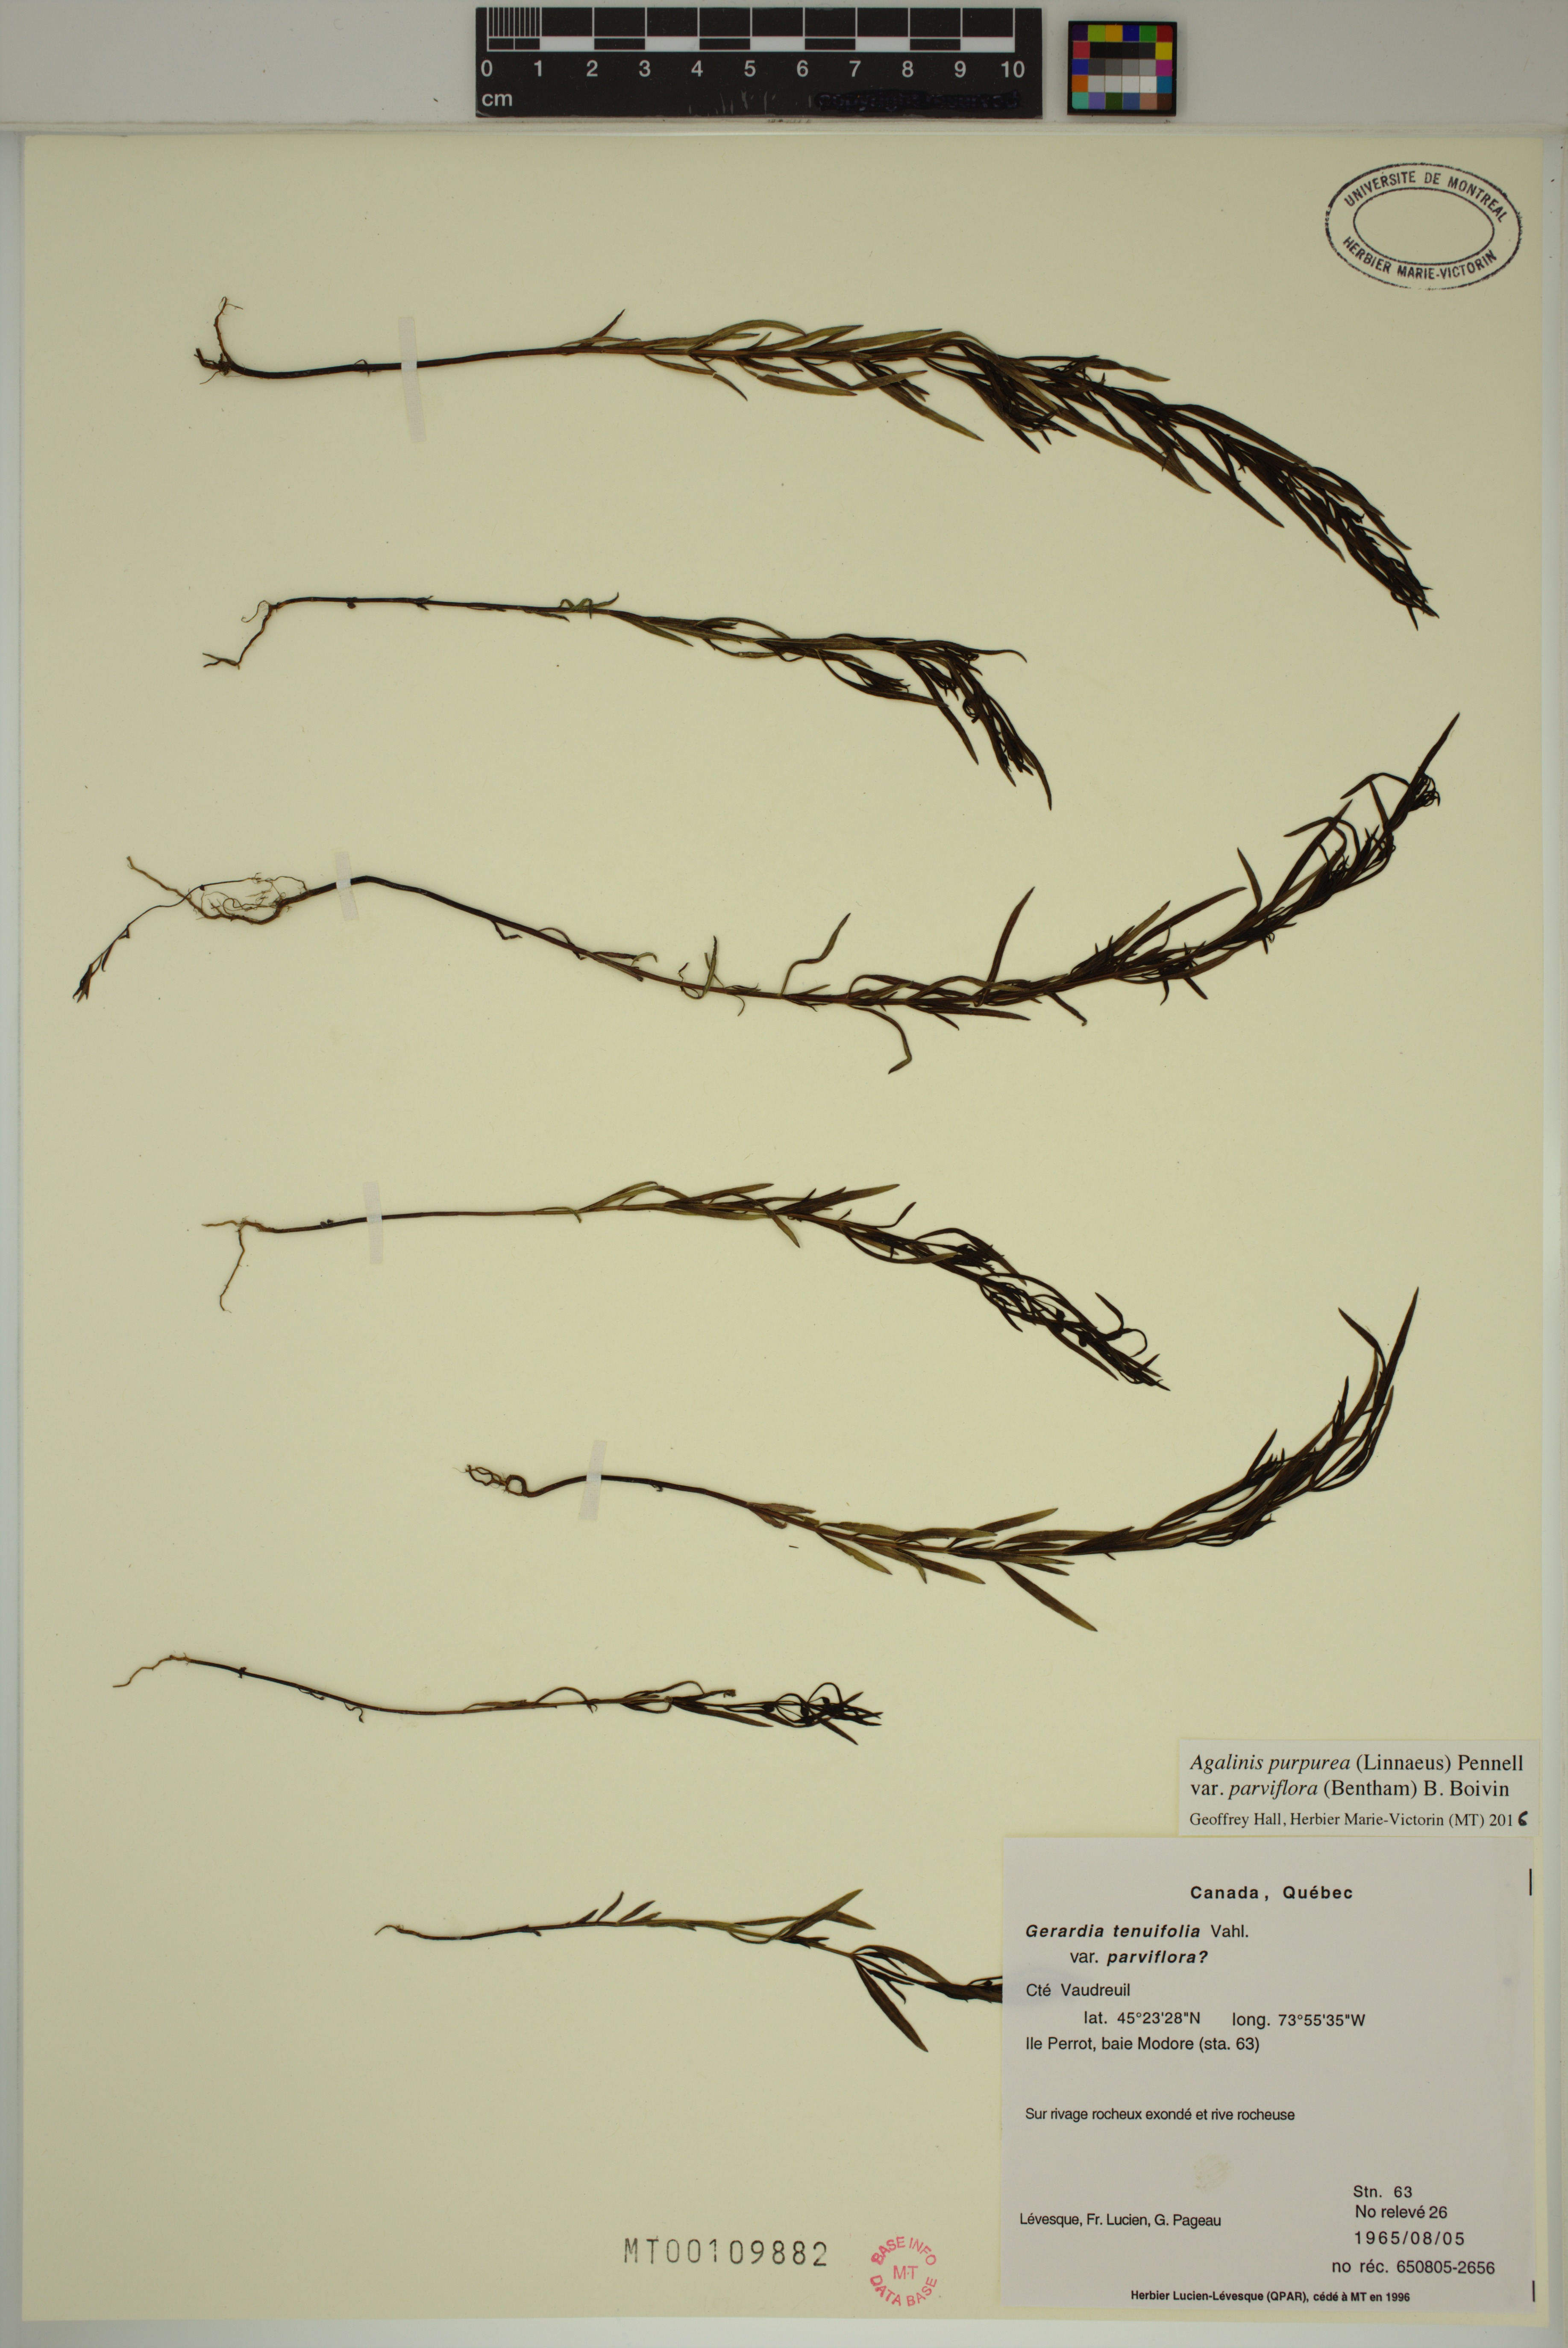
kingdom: Plantae
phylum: Tracheophyta
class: Magnoliopsida
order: Lamiales
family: Orobanchaceae
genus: Agalinis
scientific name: Agalinis purpurea
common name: Purple false foxglove
